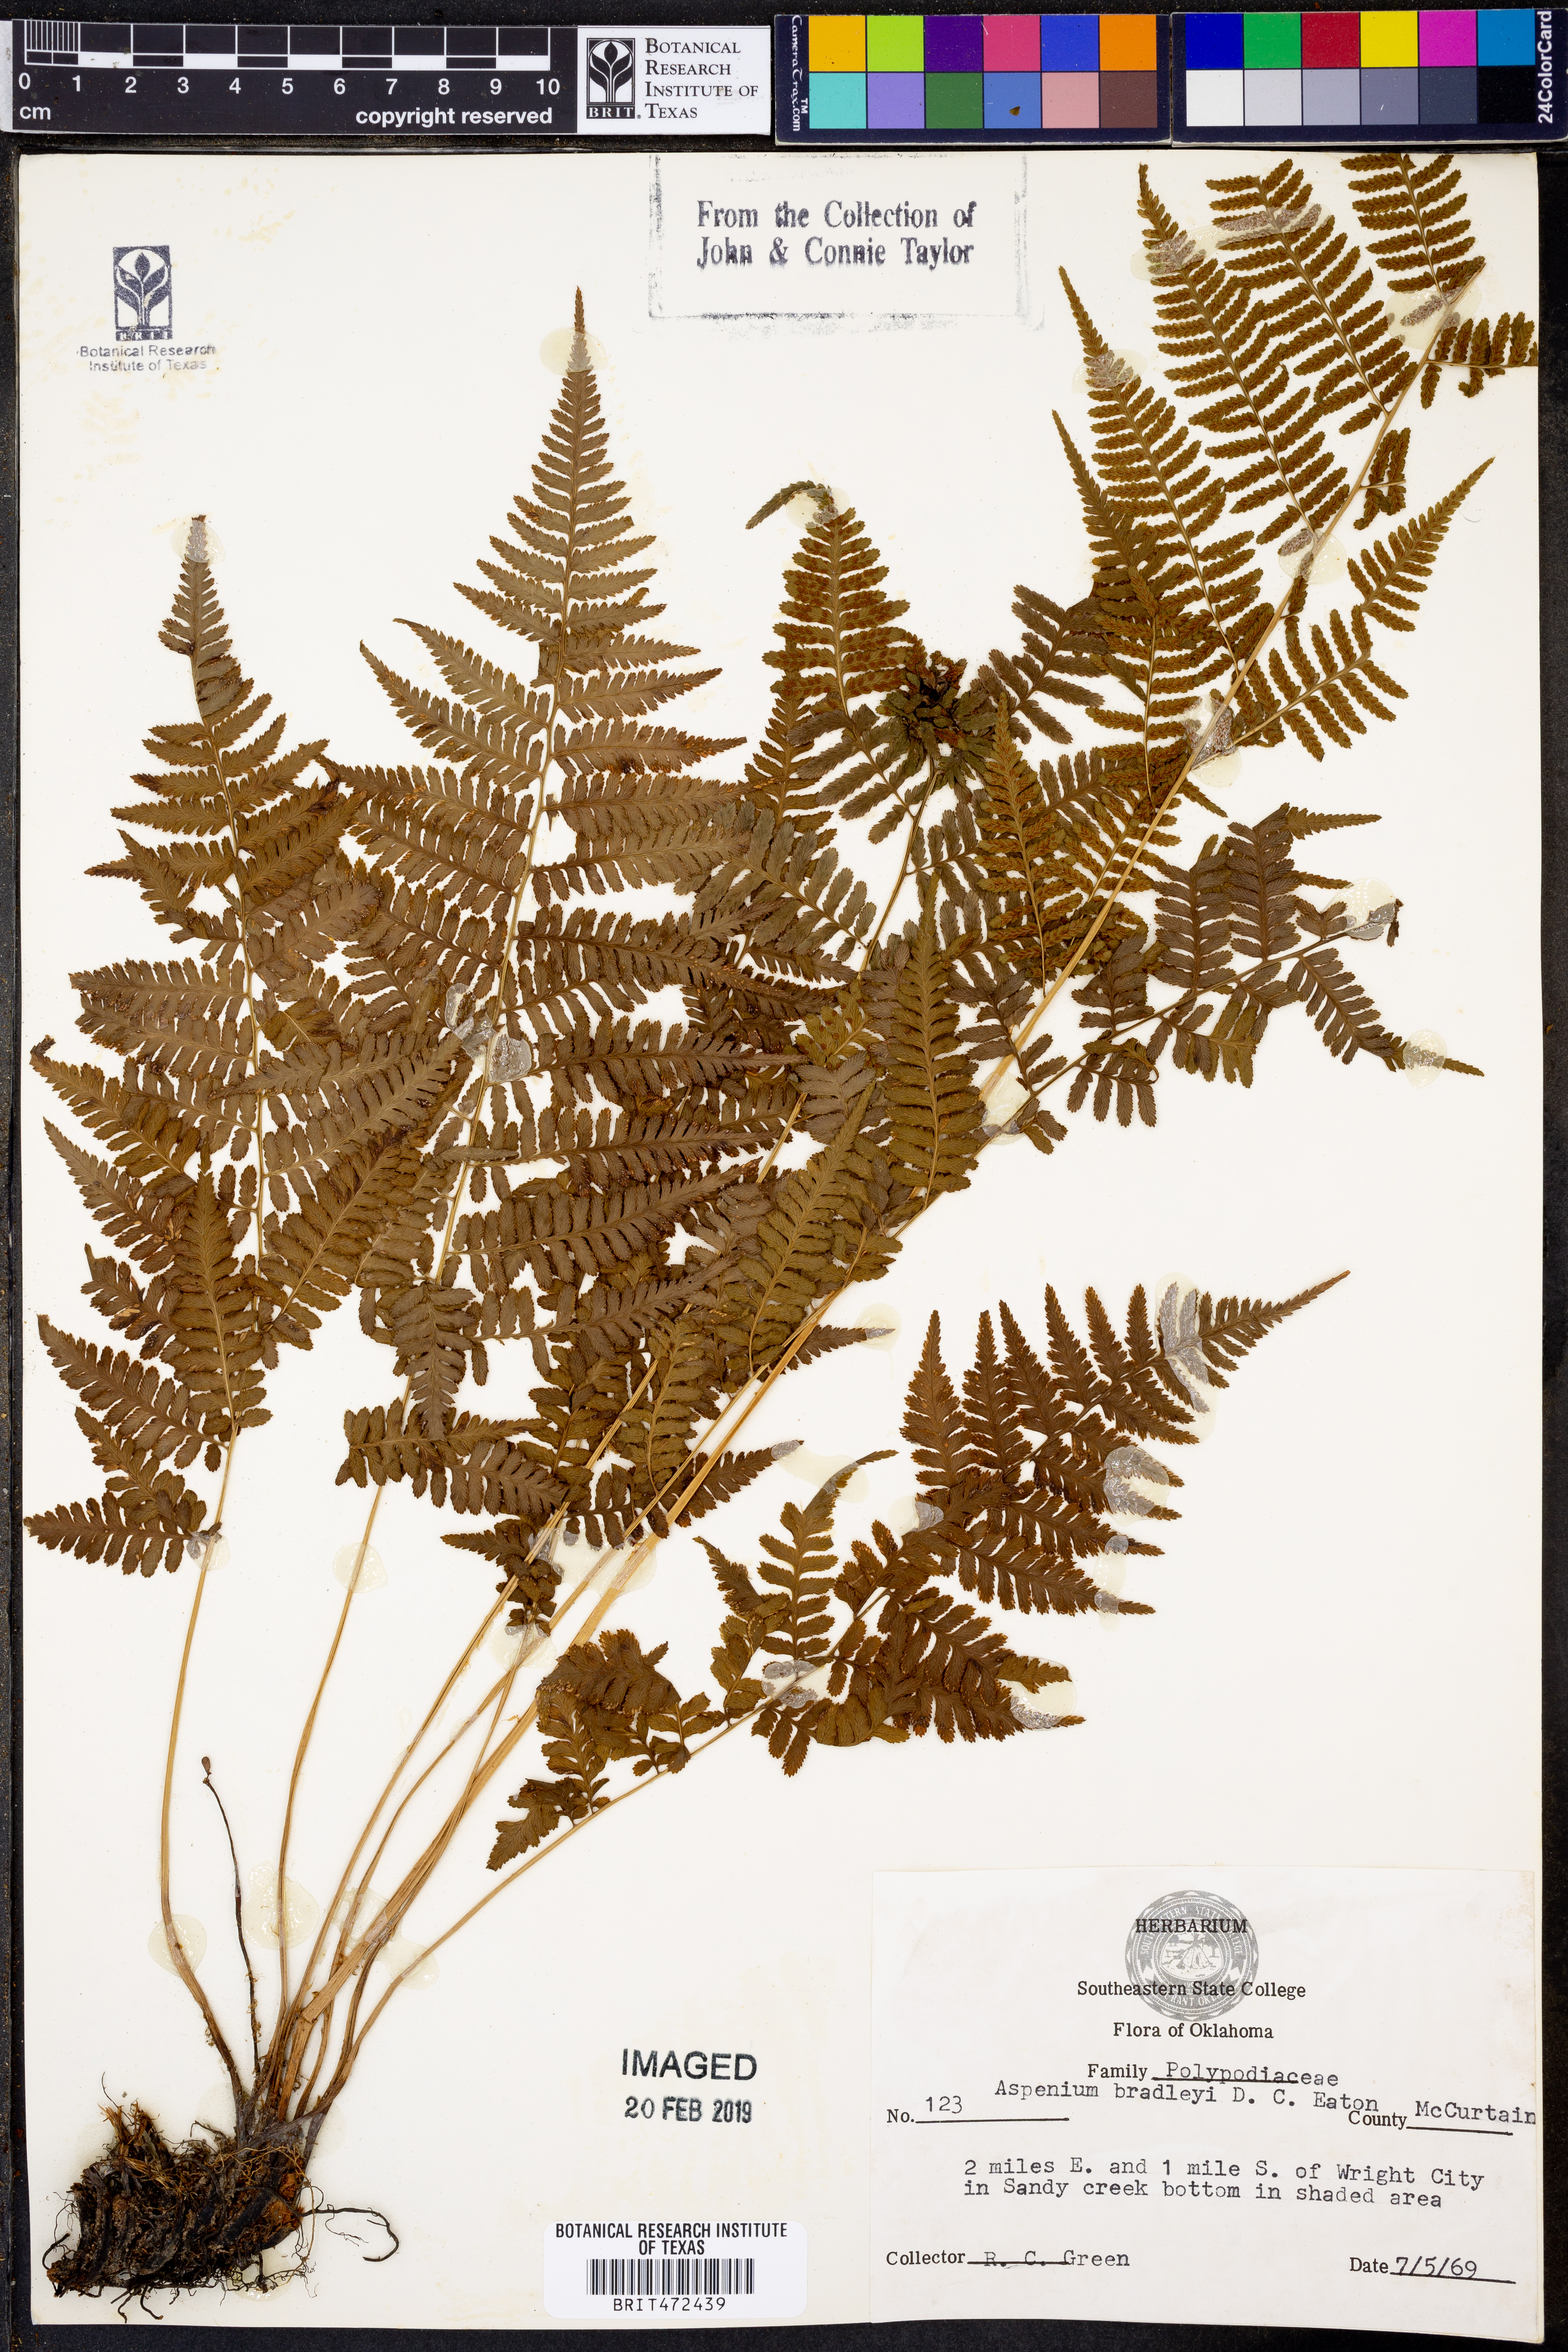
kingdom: Plantae
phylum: Tracheophyta
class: Polypodiopsida
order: Polypodiales
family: Aspleniaceae
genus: Asplenium
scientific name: Asplenium bradleyi
